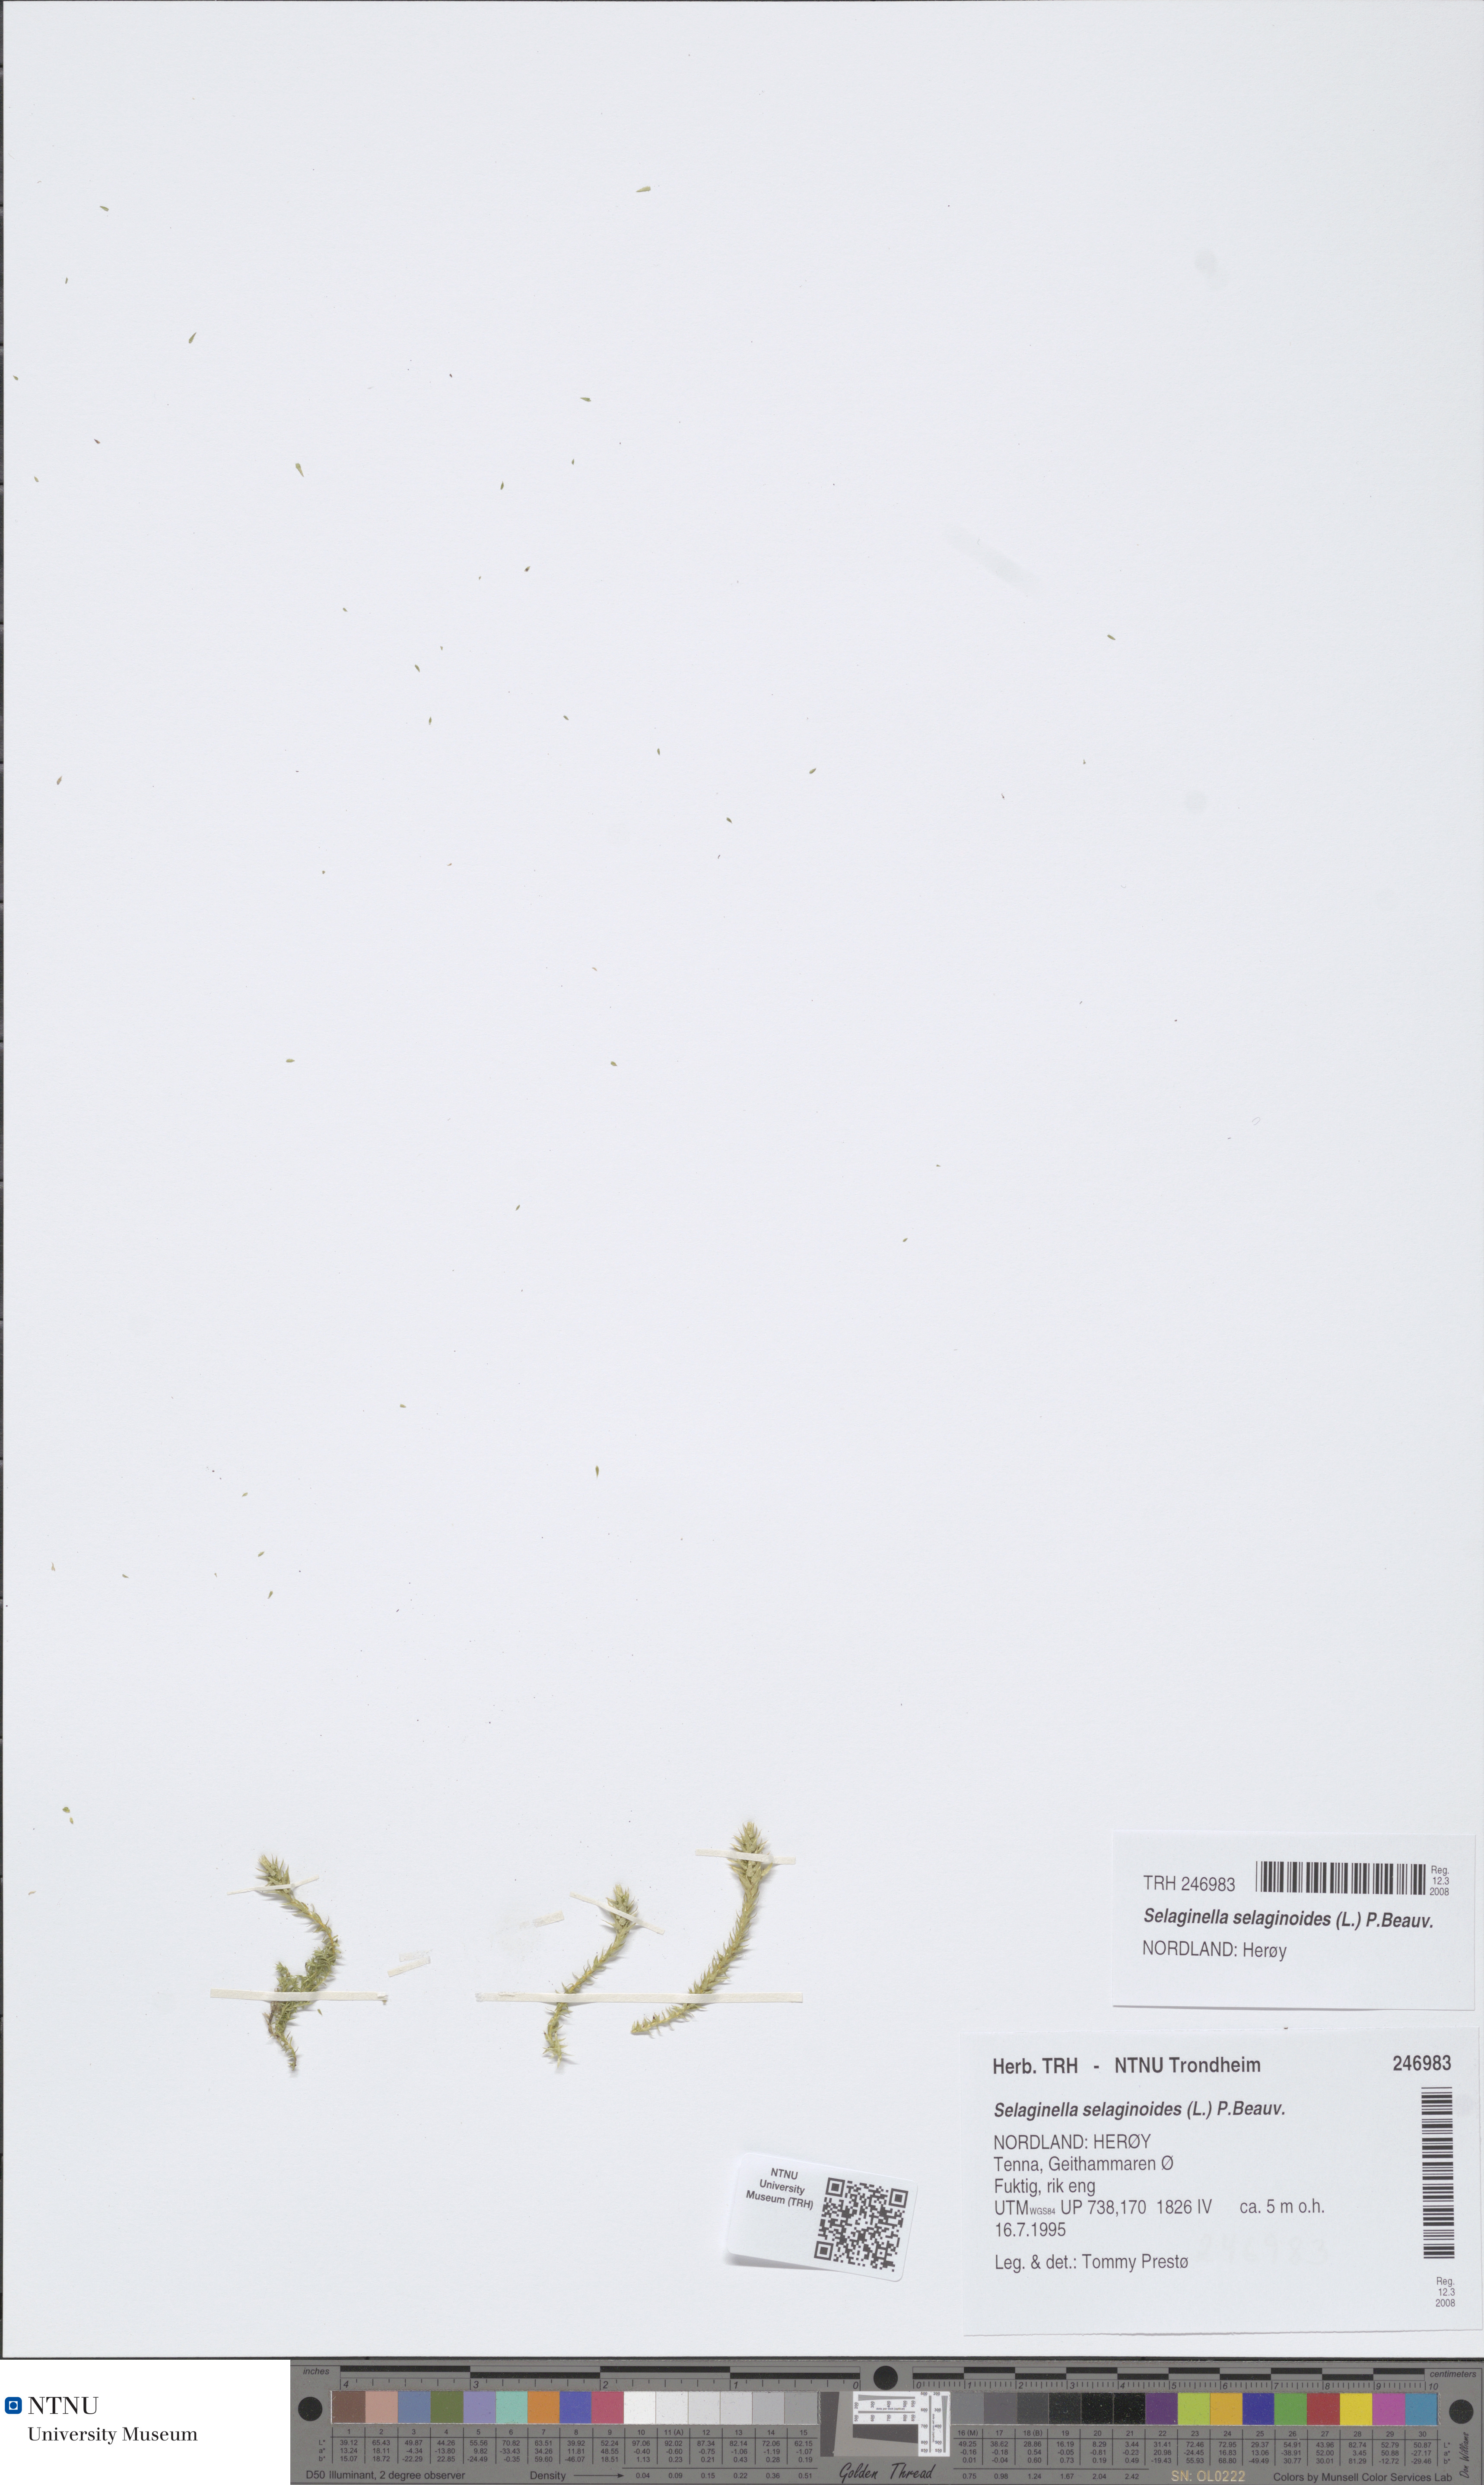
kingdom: Plantae
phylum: Tracheophyta
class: Lycopodiopsida
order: Selaginellales
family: Selaginellaceae
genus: Selaginella
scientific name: Selaginella selaginoides
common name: Prickly mountain-moss
